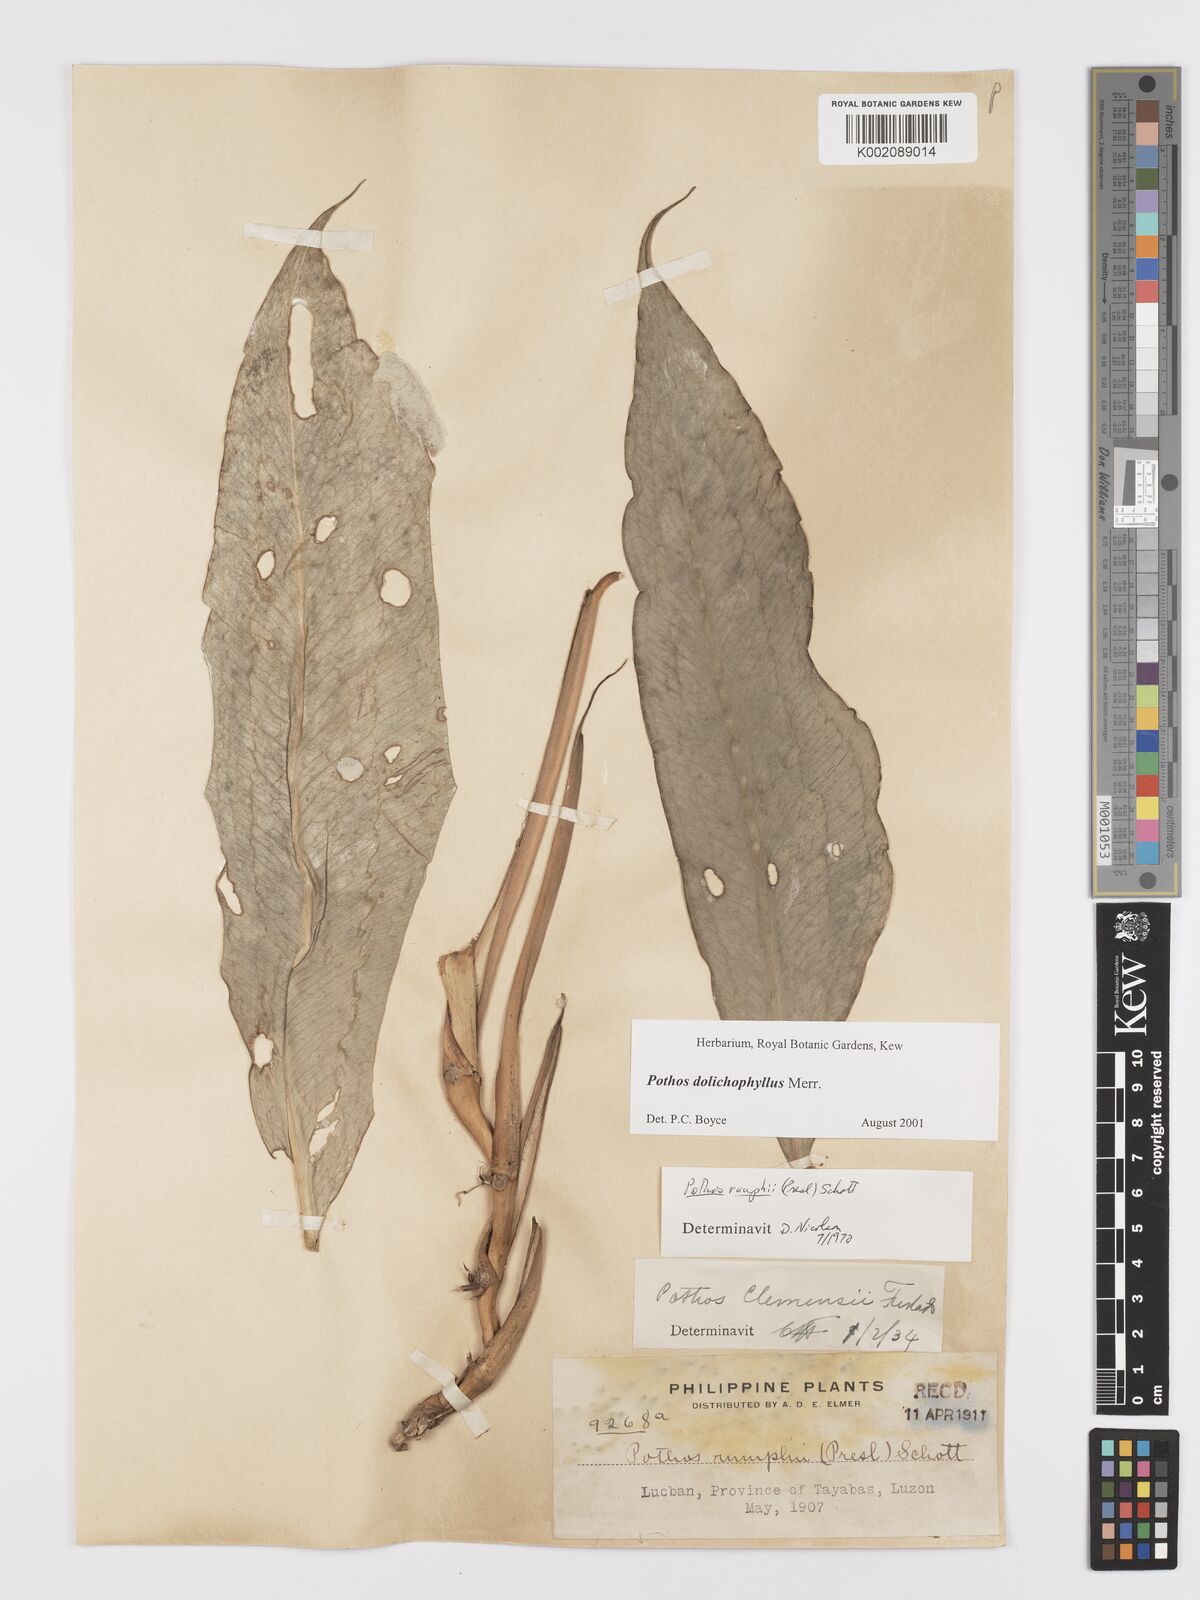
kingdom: Plantae
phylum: Tracheophyta
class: Liliopsida
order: Alismatales
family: Araceae
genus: Pothos
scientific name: Pothos dolichophyllus
